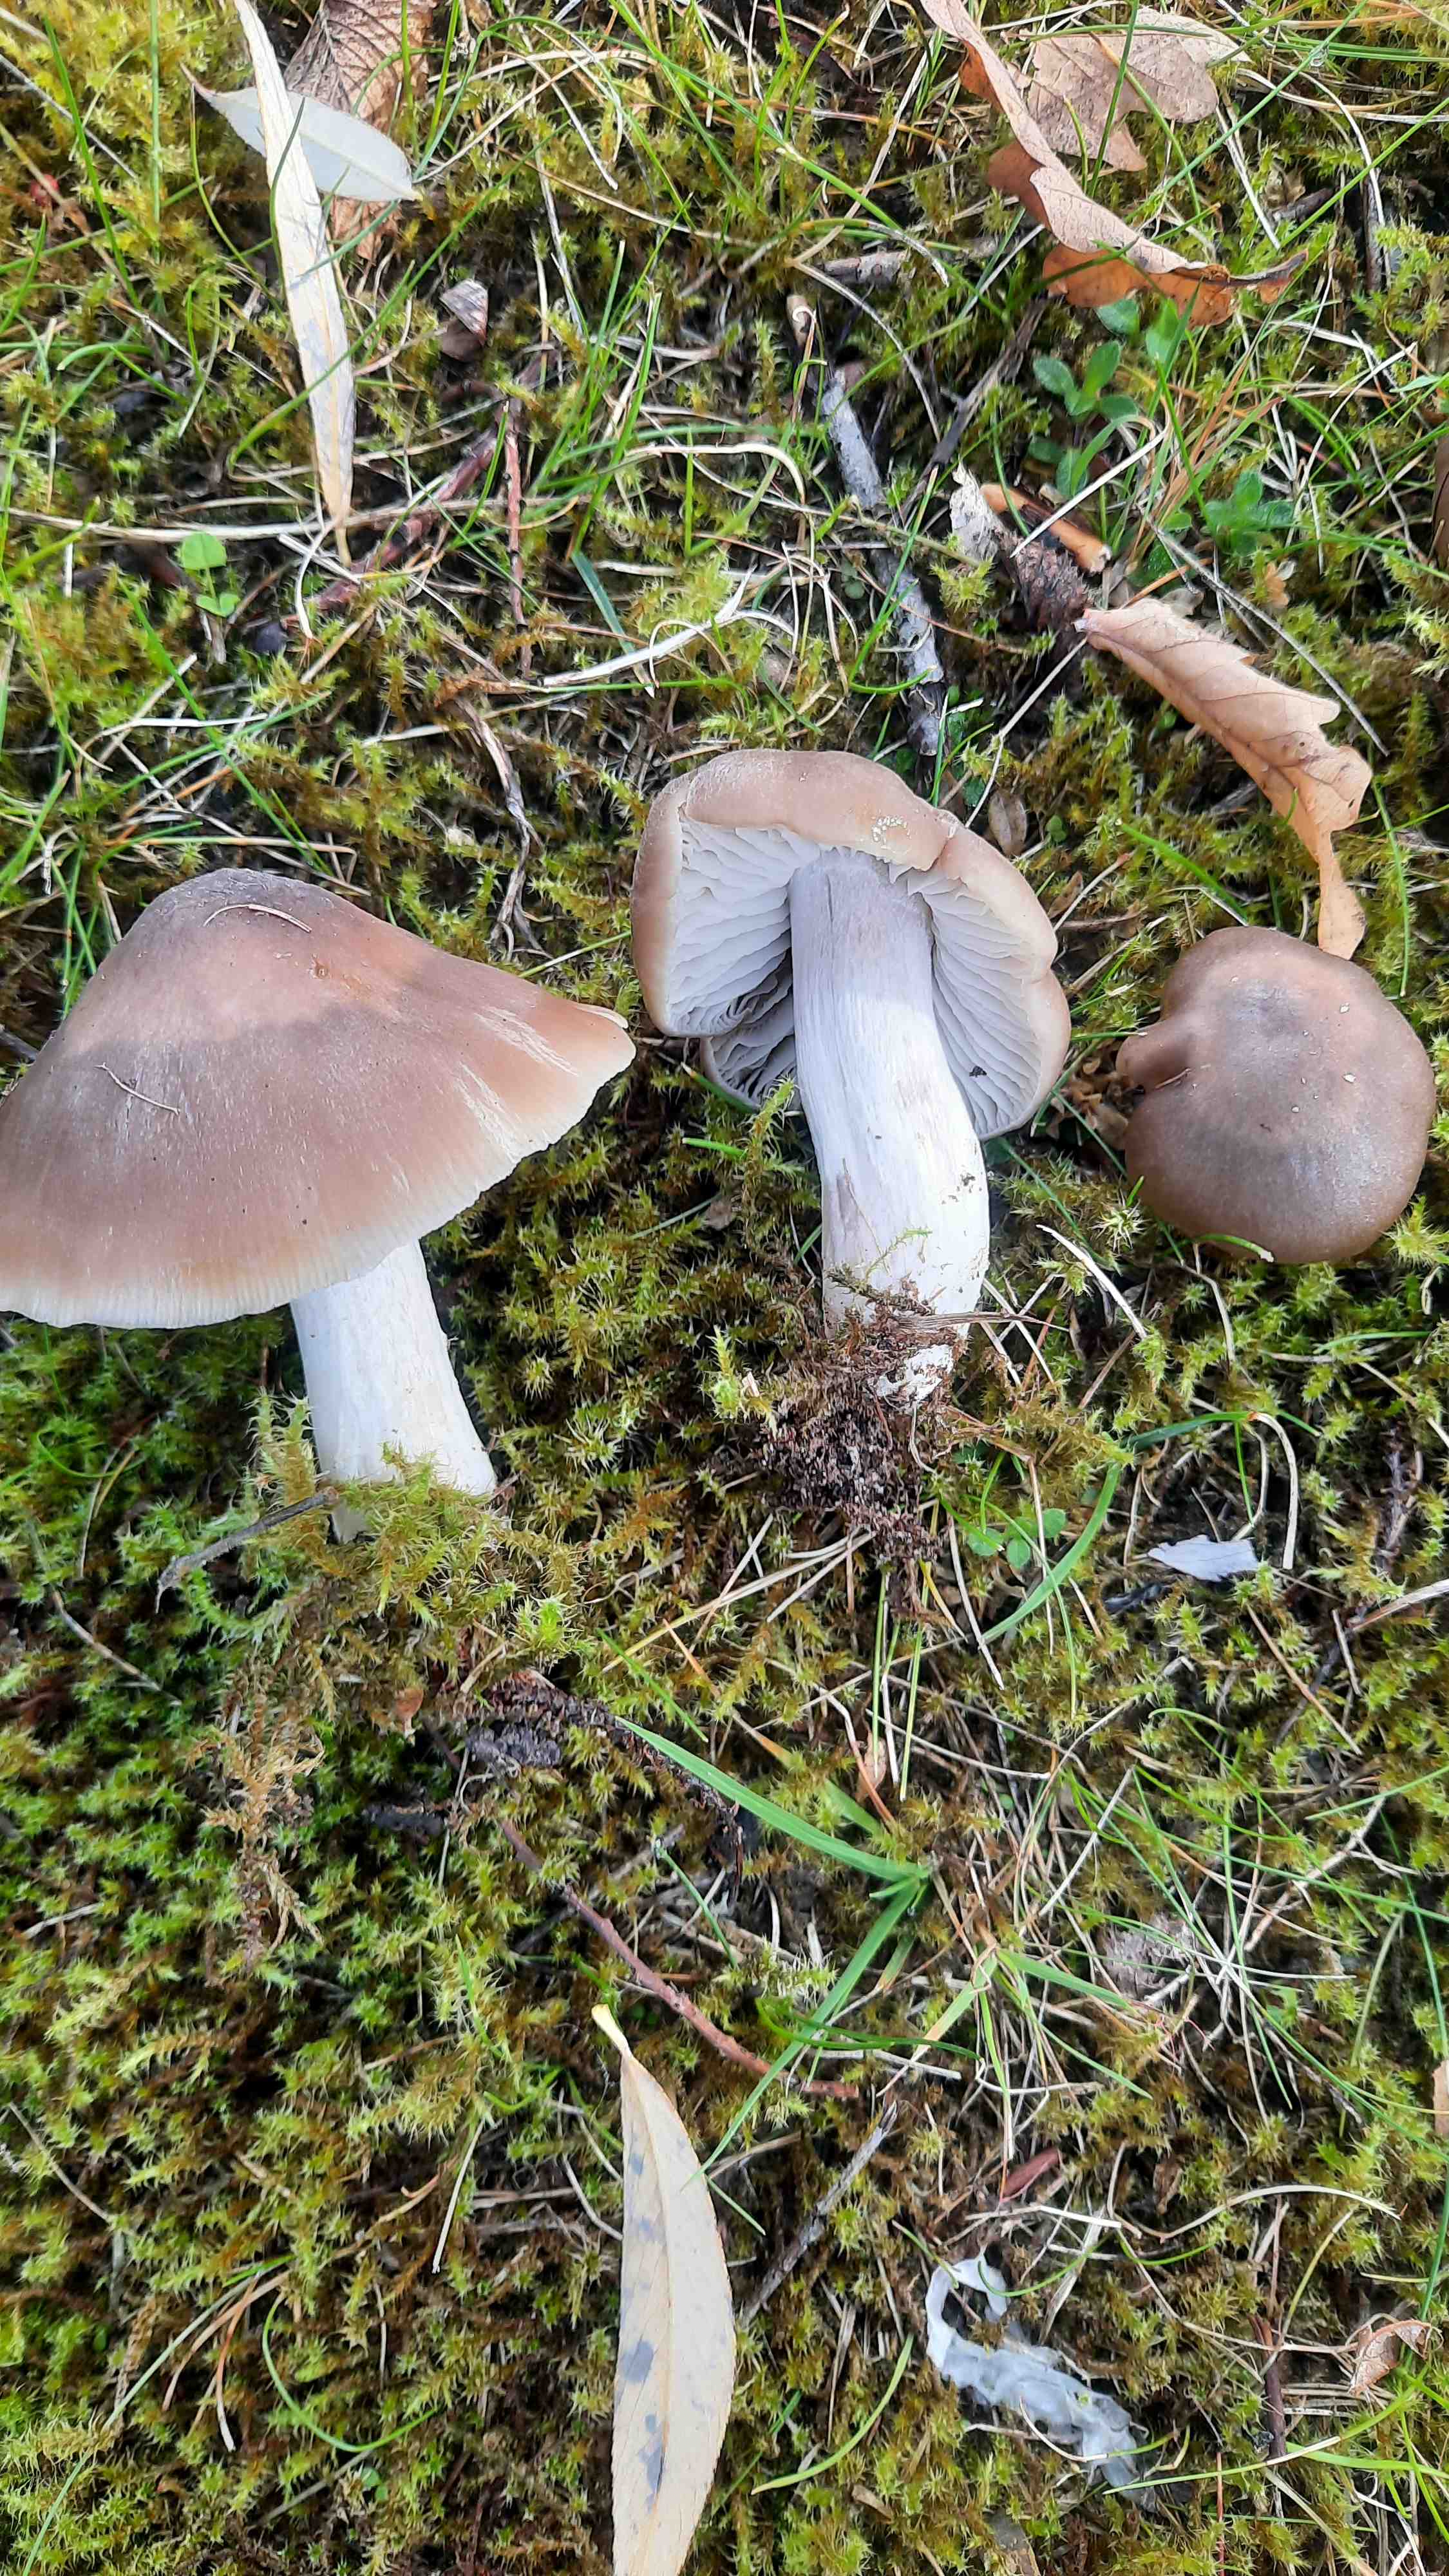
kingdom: Fungi
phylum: Basidiomycota
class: Agaricomycetes
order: Agaricales
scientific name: Agaricales
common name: champignonordenen
